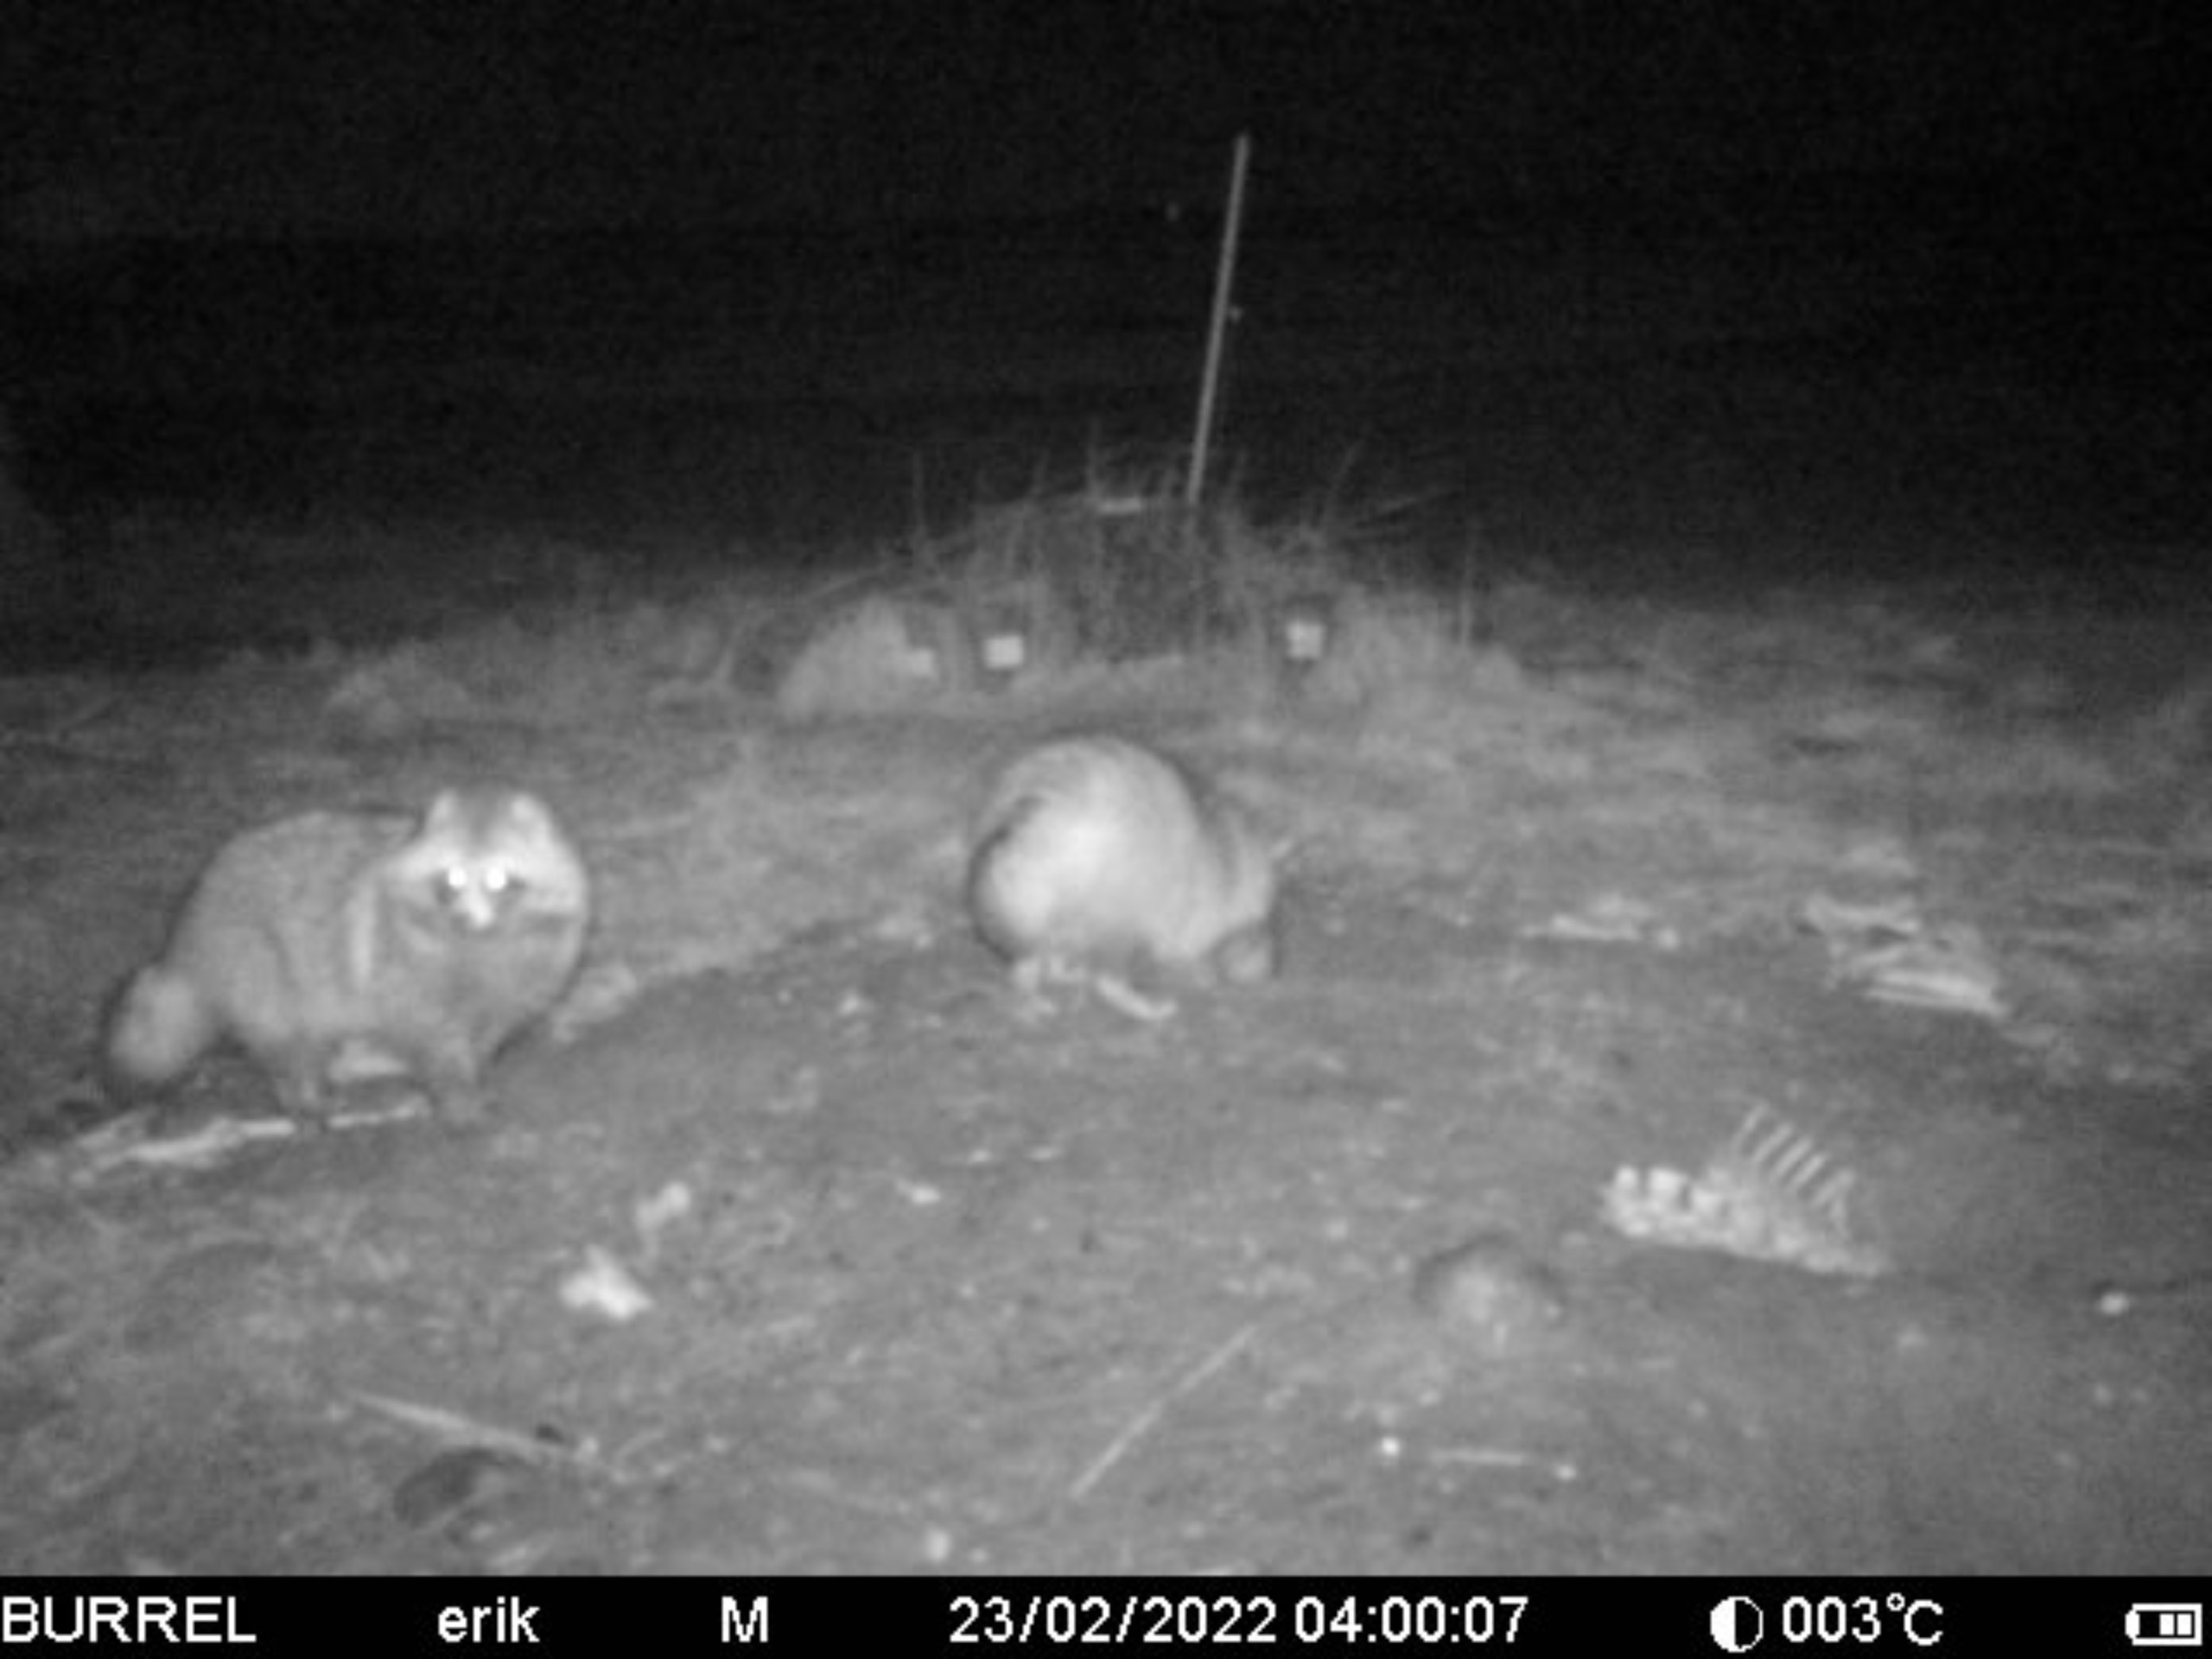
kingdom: Animalia
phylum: Chordata
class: Mammalia
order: Carnivora
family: Canidae
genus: Nyctereutes
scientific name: Nyctereutes procyonoides
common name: Mårhund
